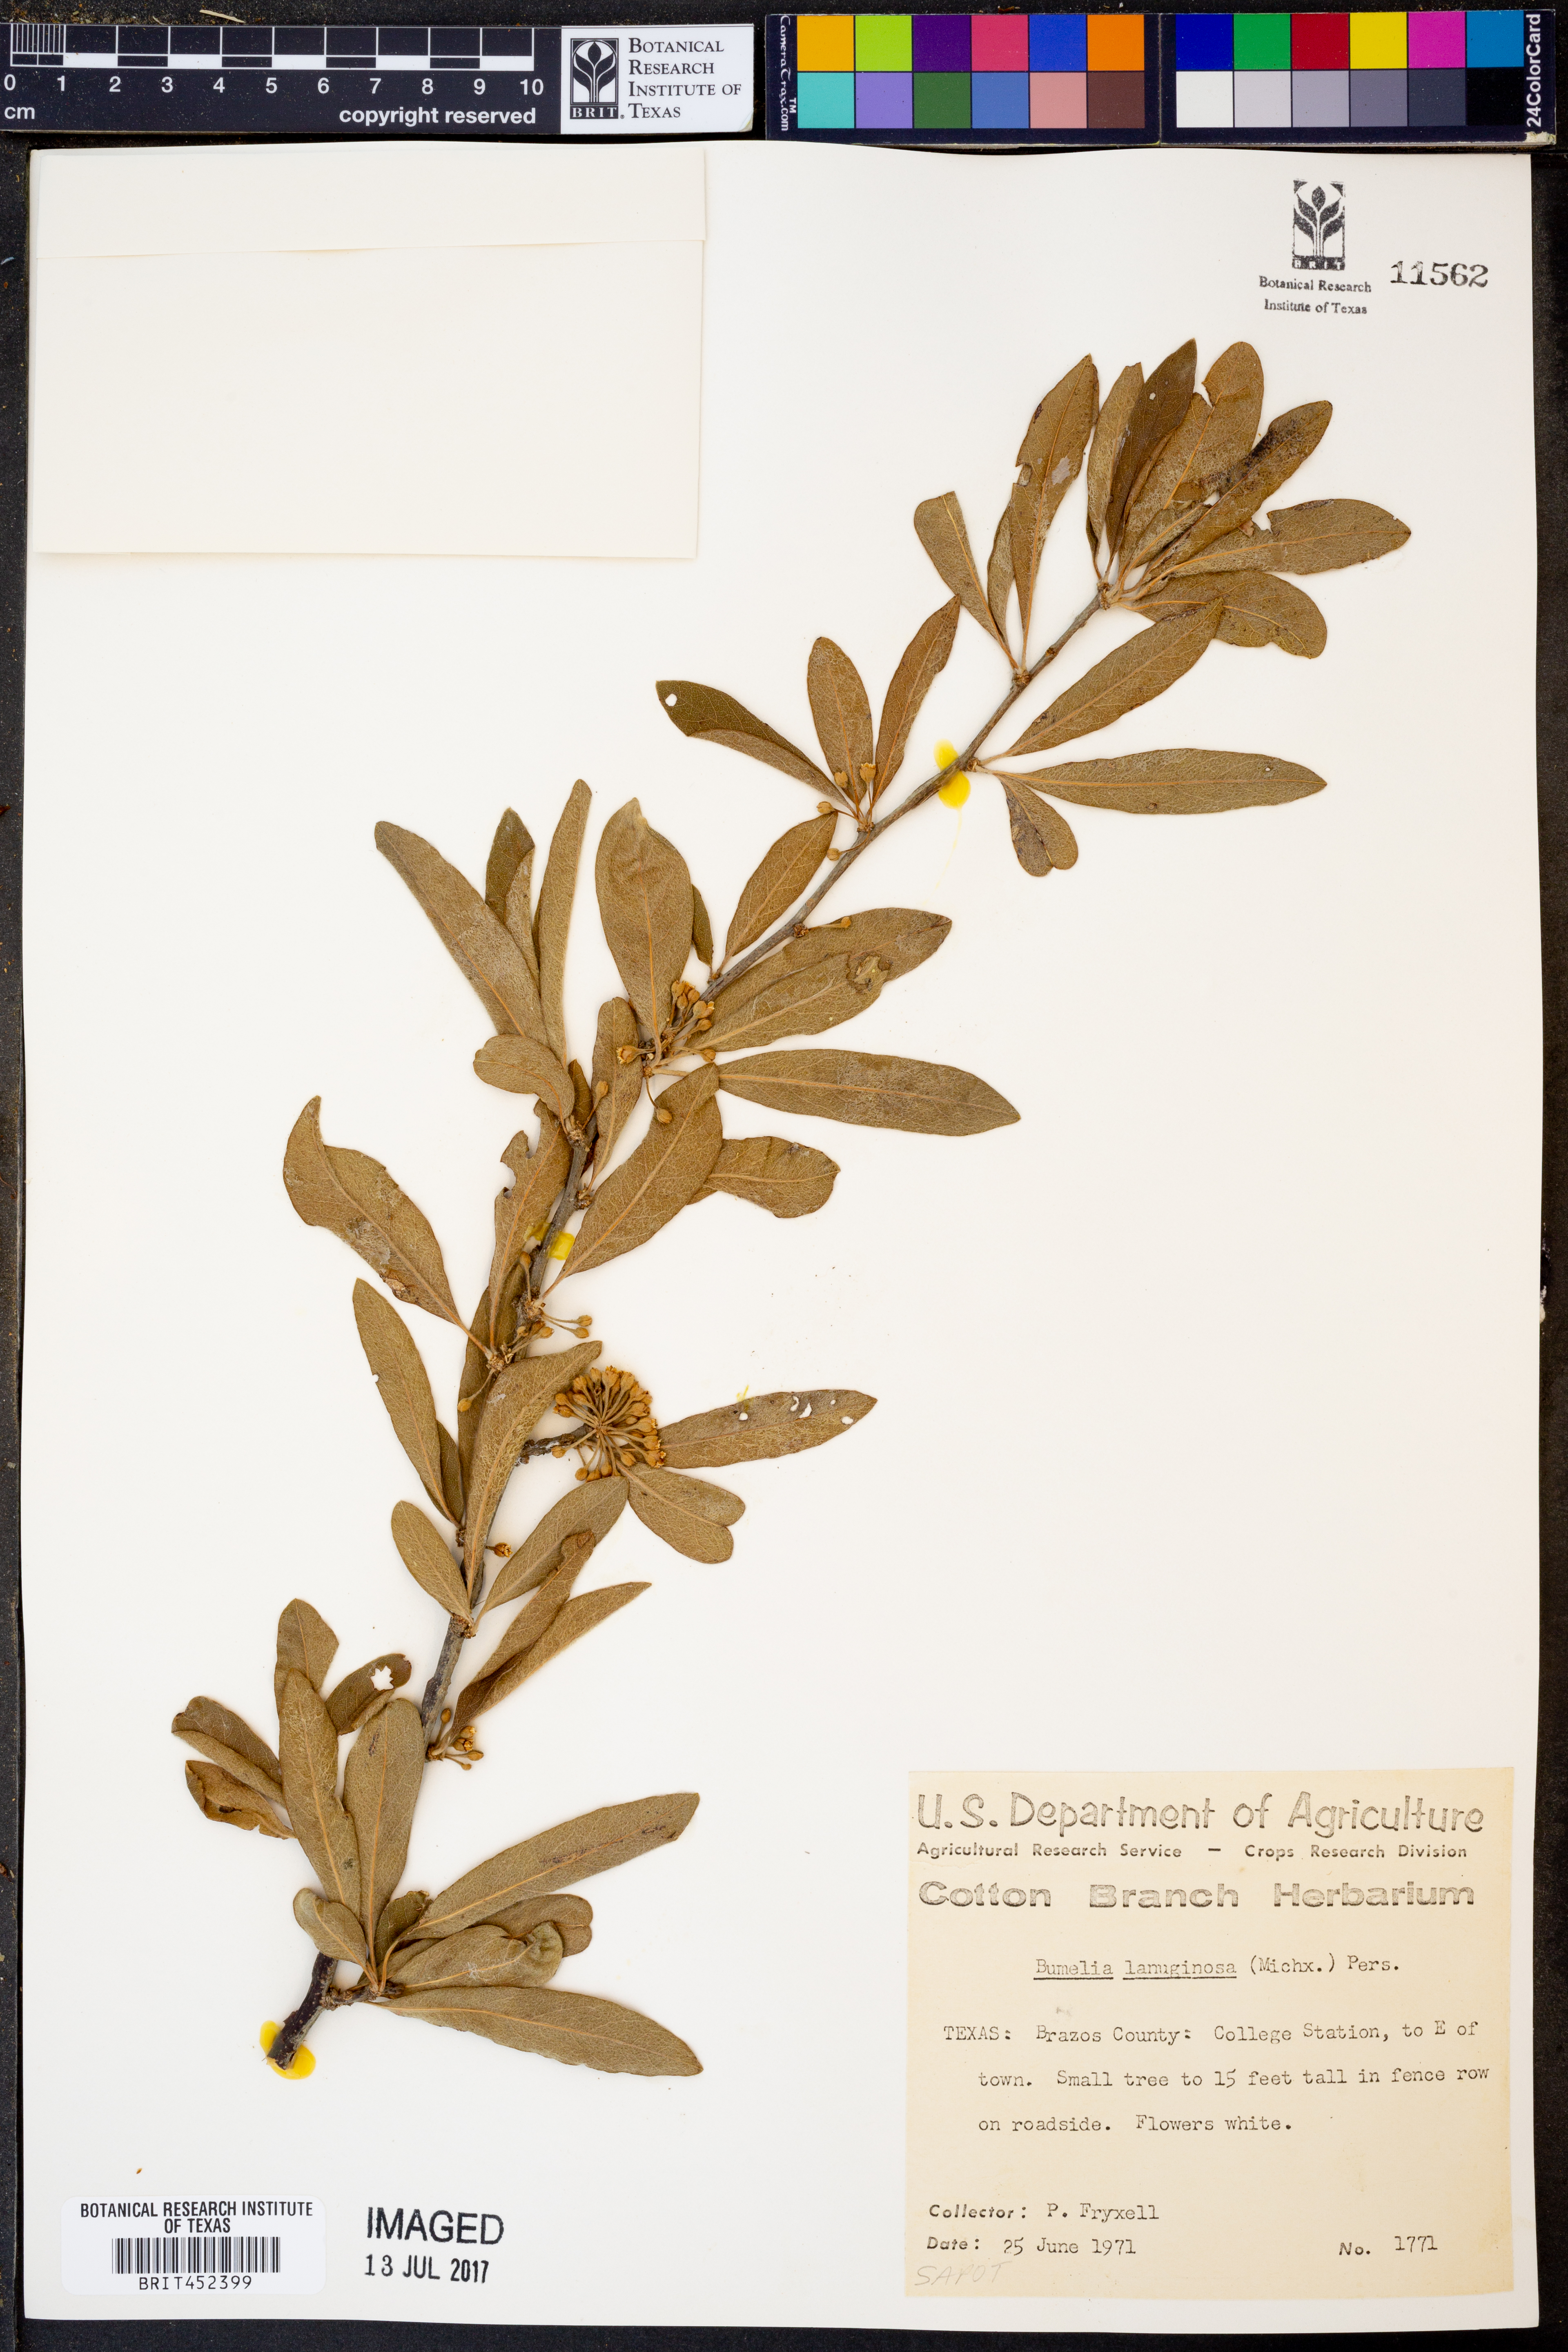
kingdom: Plantae
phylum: Tracheophyta
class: Magnoliopsida
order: Ericales
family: Sapotaceae
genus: Sideroxylon
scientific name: Sideroxylon lanuginosum
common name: Chittamwood
